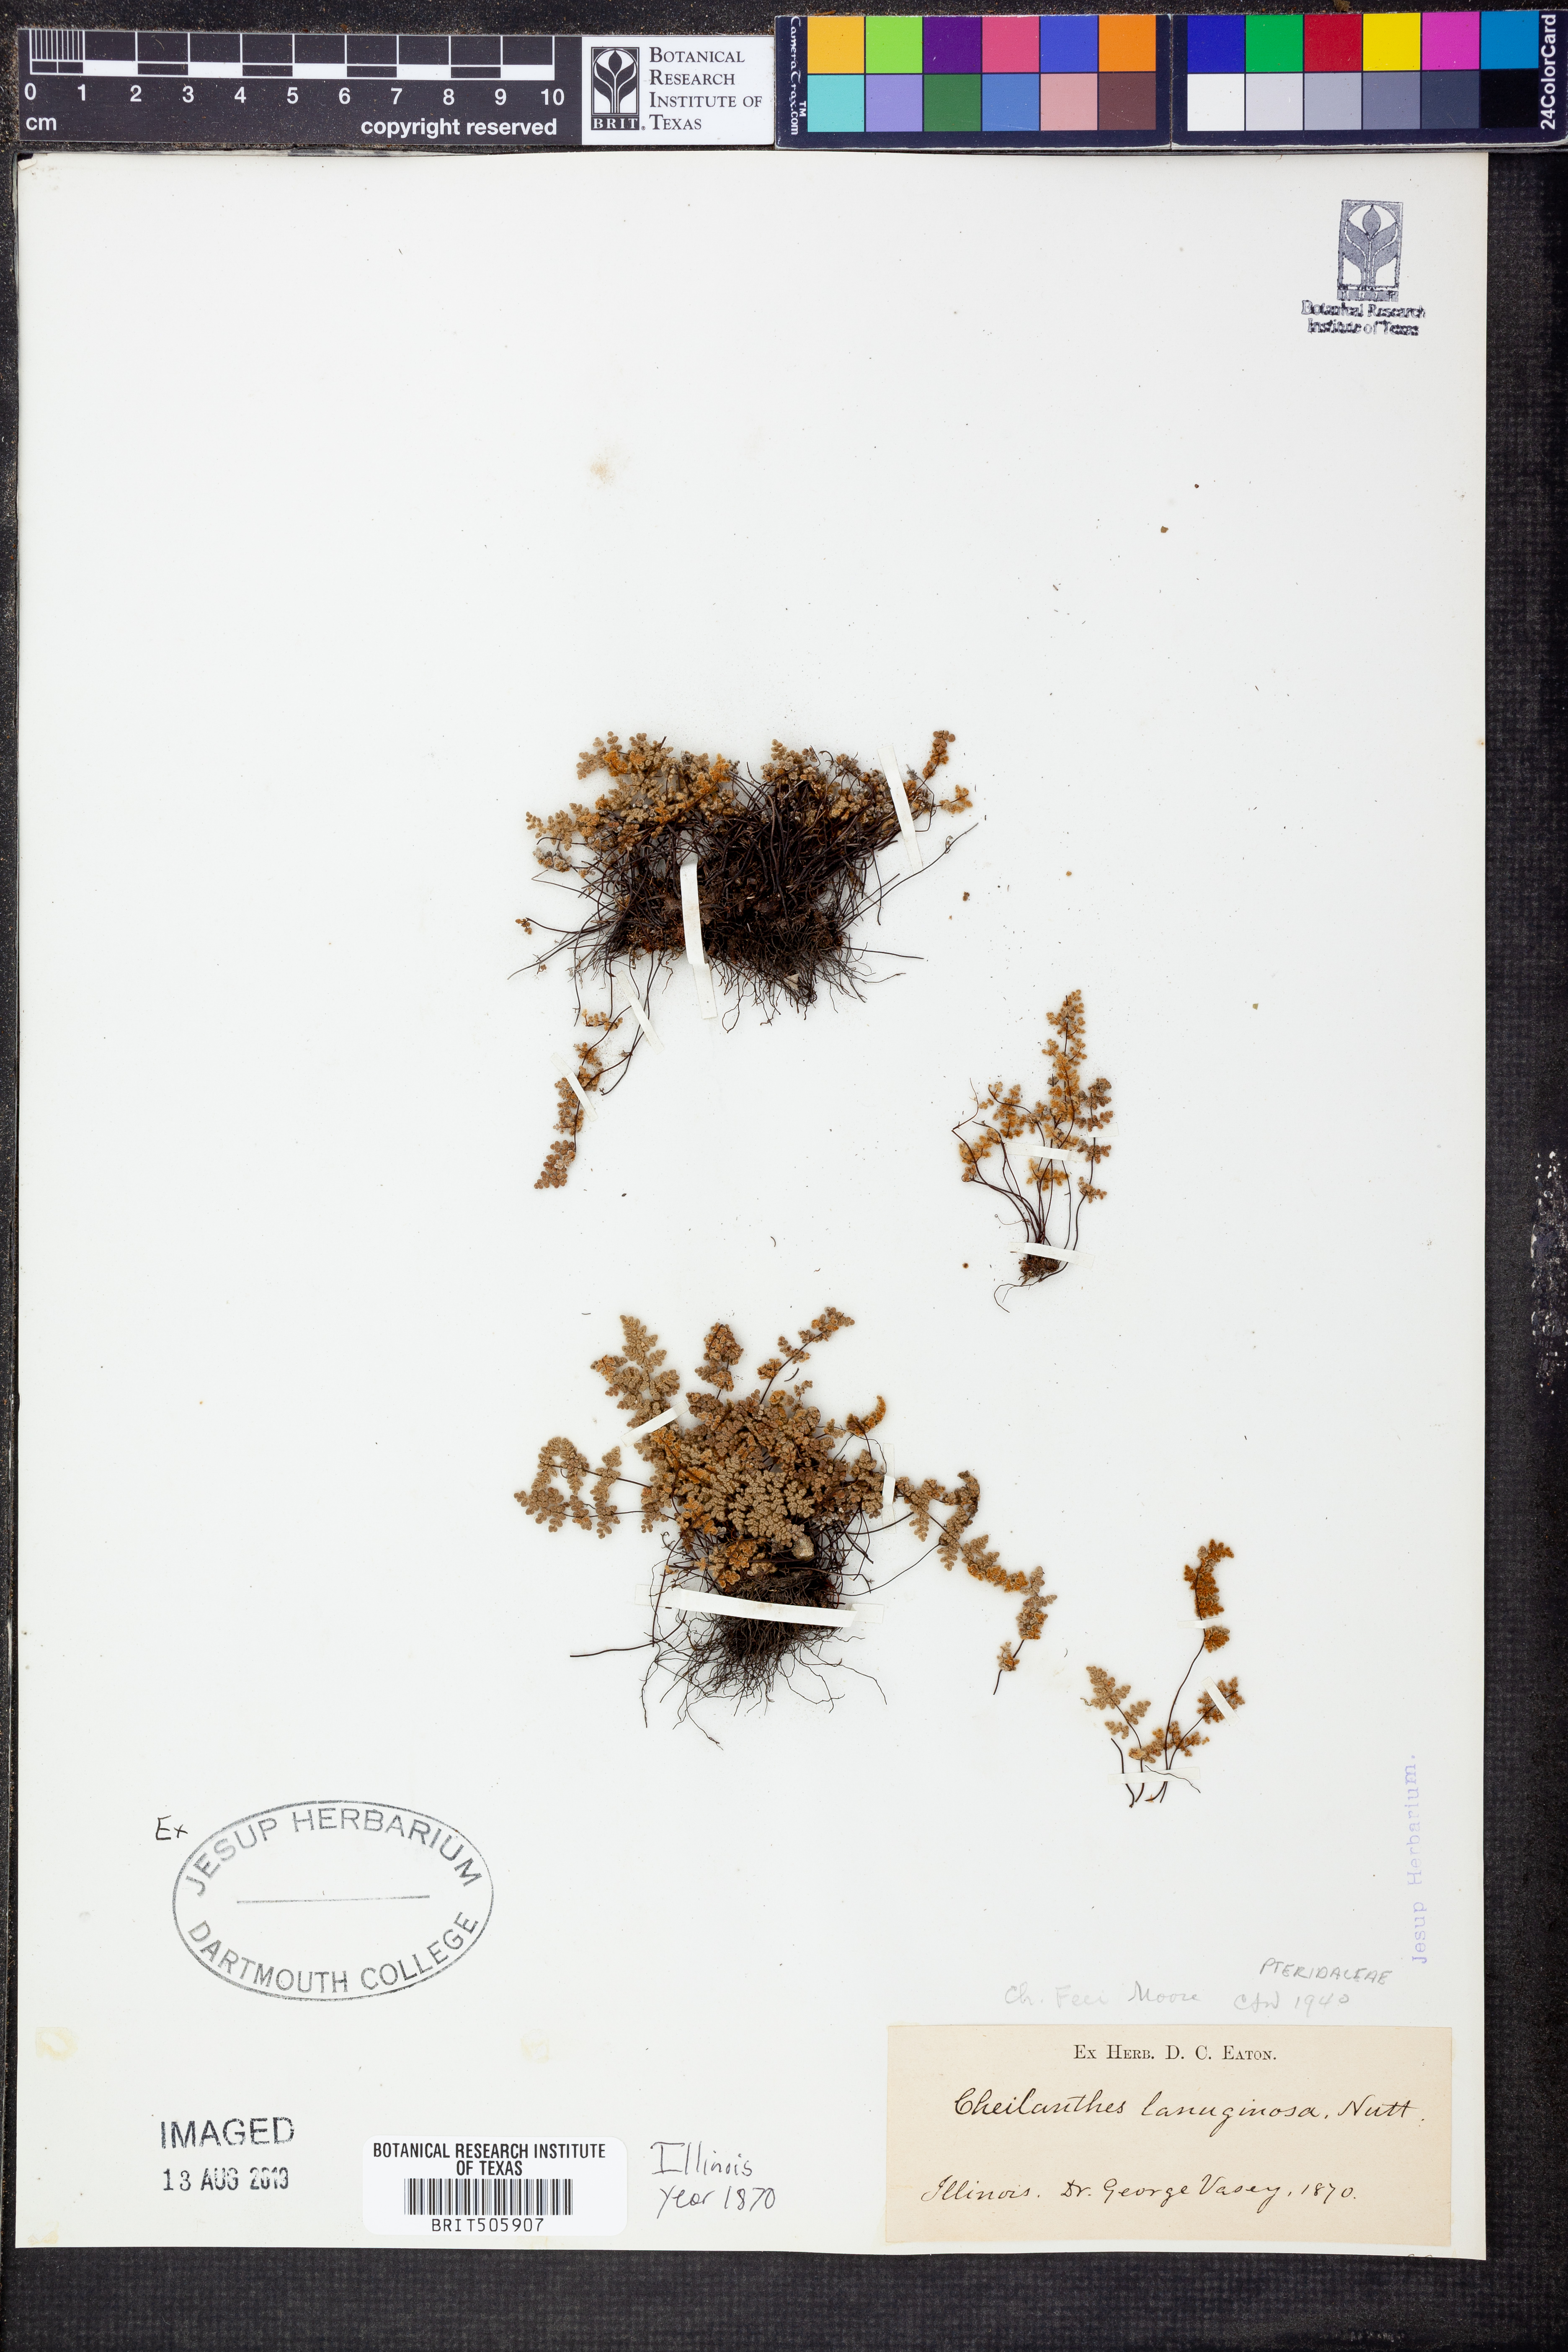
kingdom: Plantae
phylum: Tracheophyta
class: Polypodiopsida
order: Polypodiales
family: Pteridaceae
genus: Myriopteris
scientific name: Myriopteris gracilis
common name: Fee's lip fern
